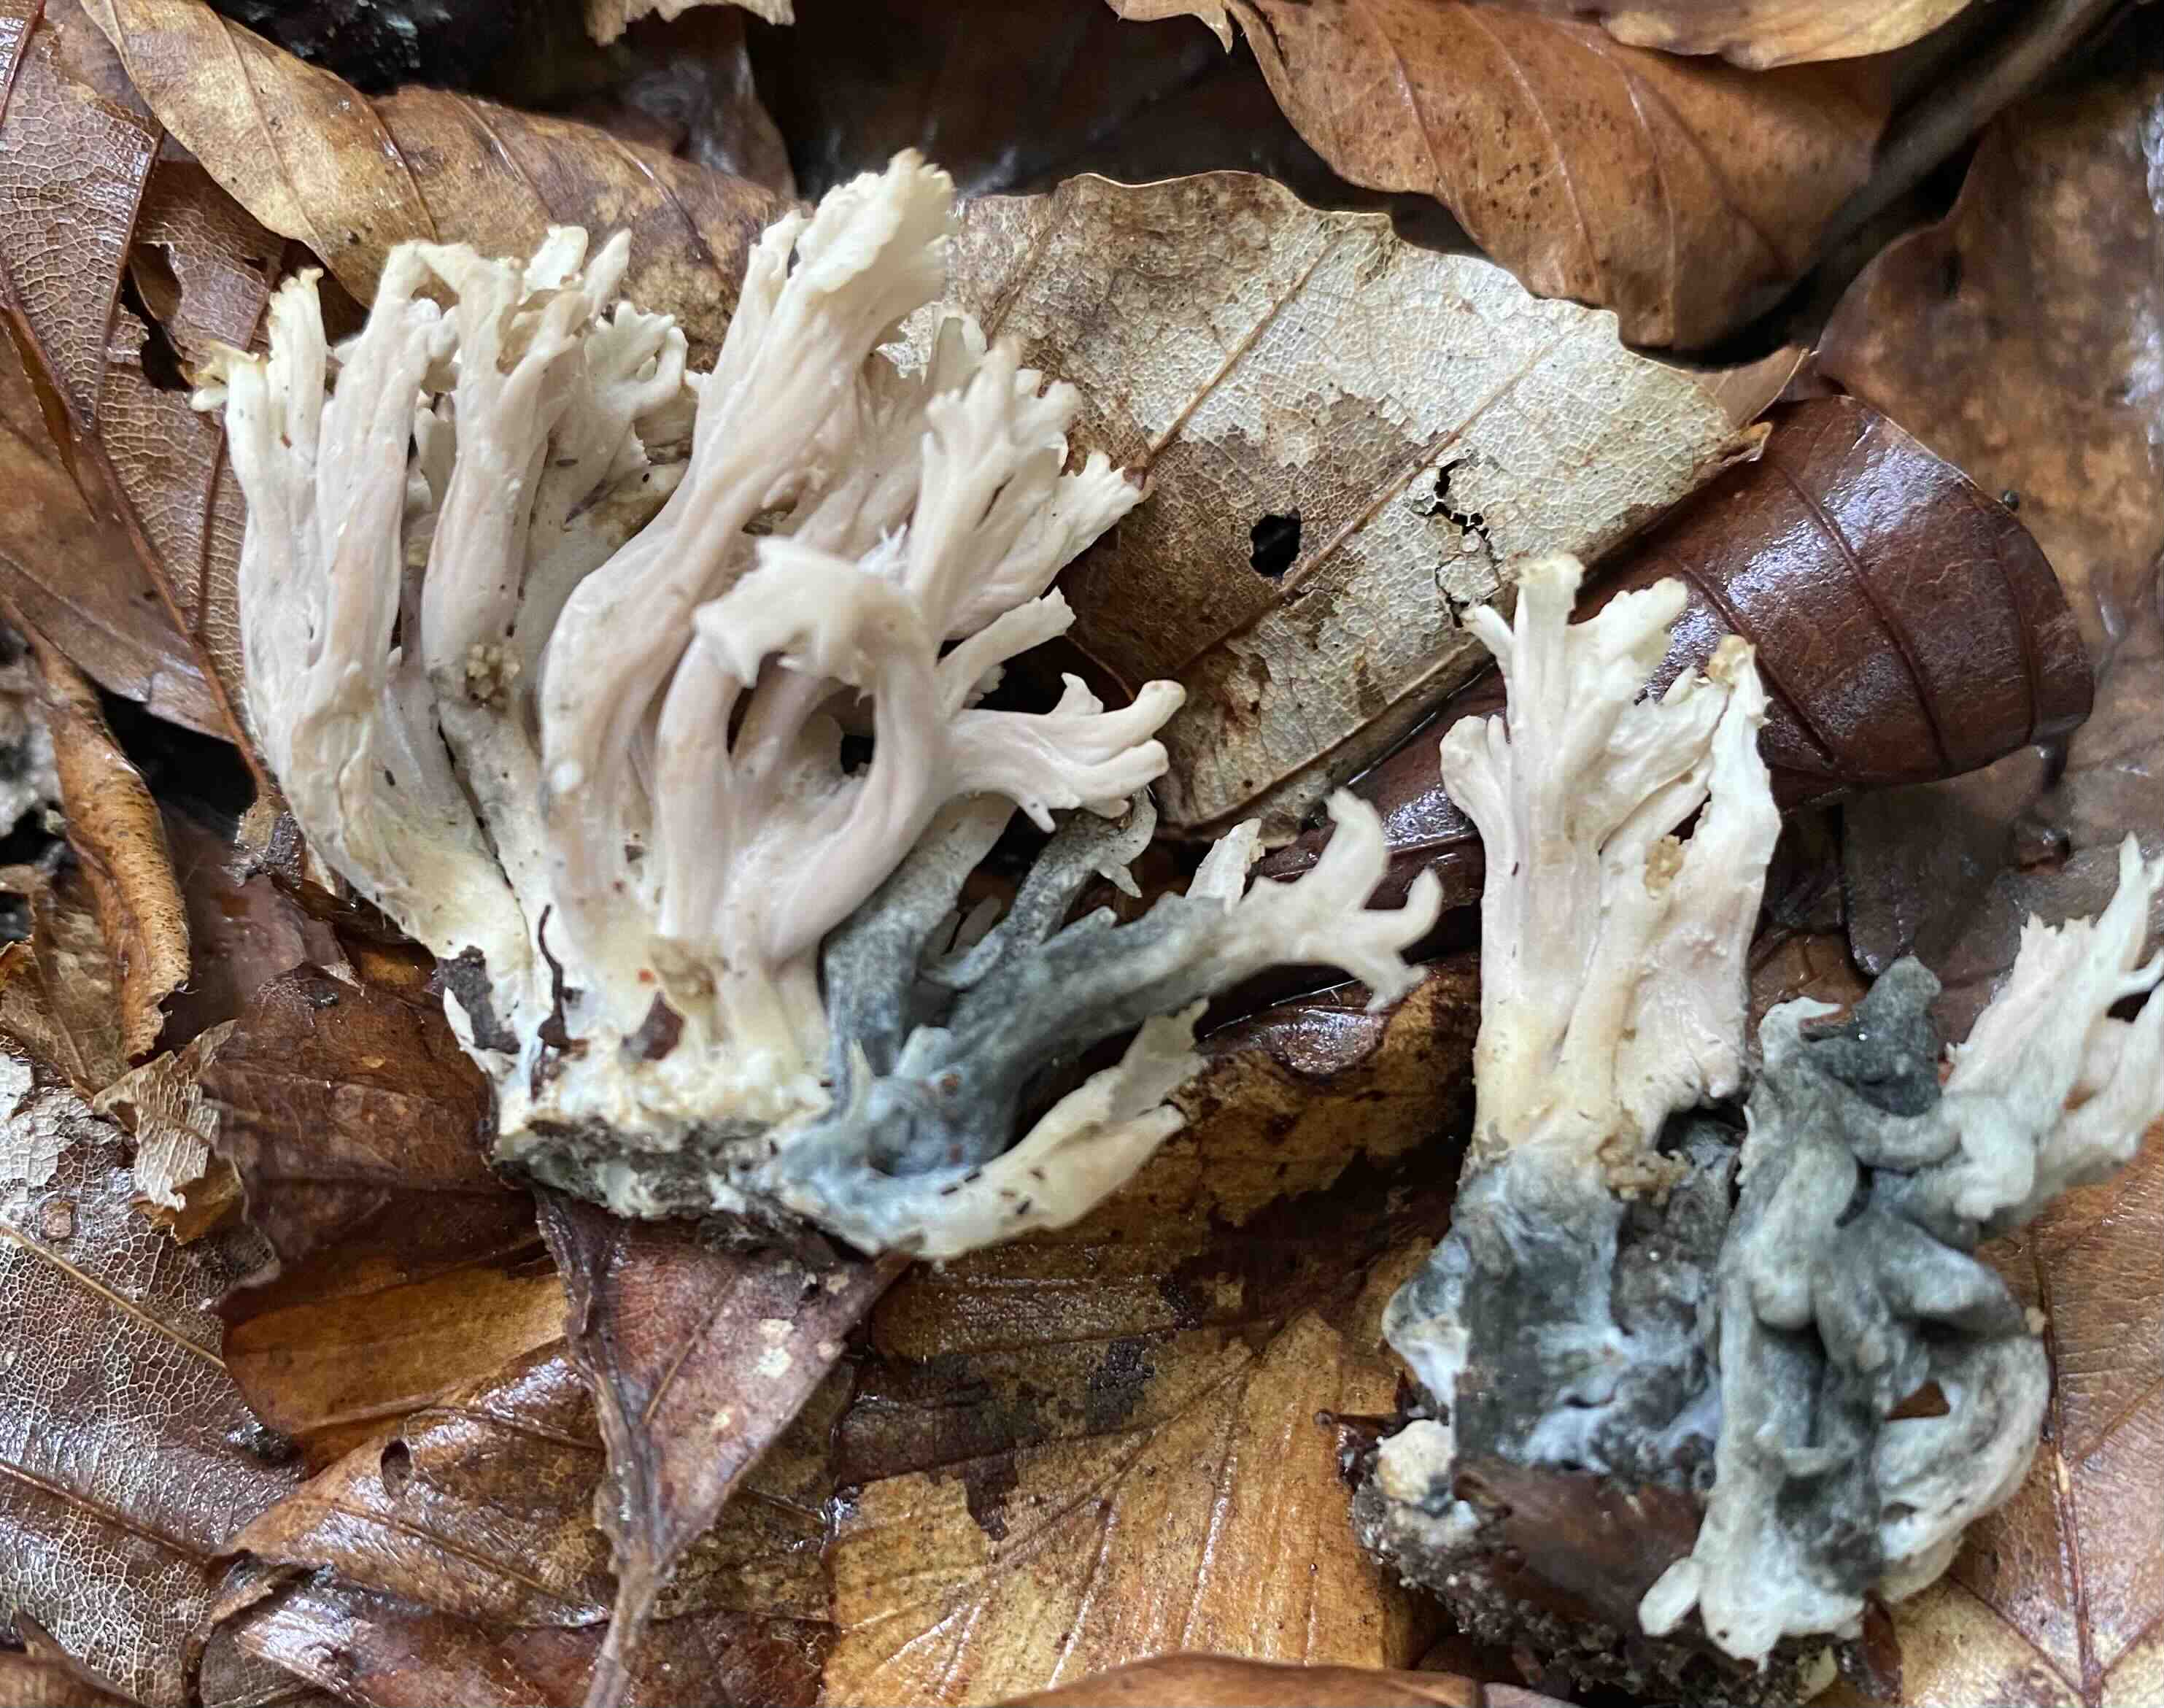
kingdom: Fungi
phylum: Ascomycota
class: Sordariomycetes
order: Sordariales
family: Helminthosphaeriaceae
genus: Helminthosphaeria
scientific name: Helminthosphaeria clavariarum
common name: trold-svampesnyltekerne
